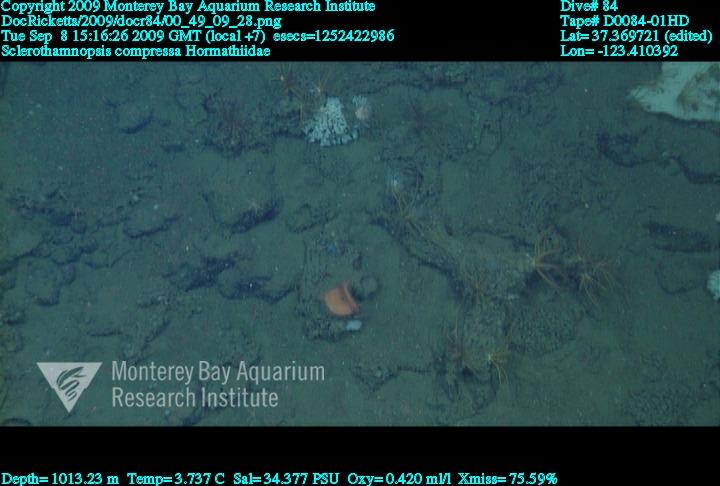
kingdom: Animalia
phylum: Porifera
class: Hexactinellida
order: Sceptrulophora
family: Tretodictyidae
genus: Sclerothamnopsis
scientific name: Sclerothamnopsis compressa
